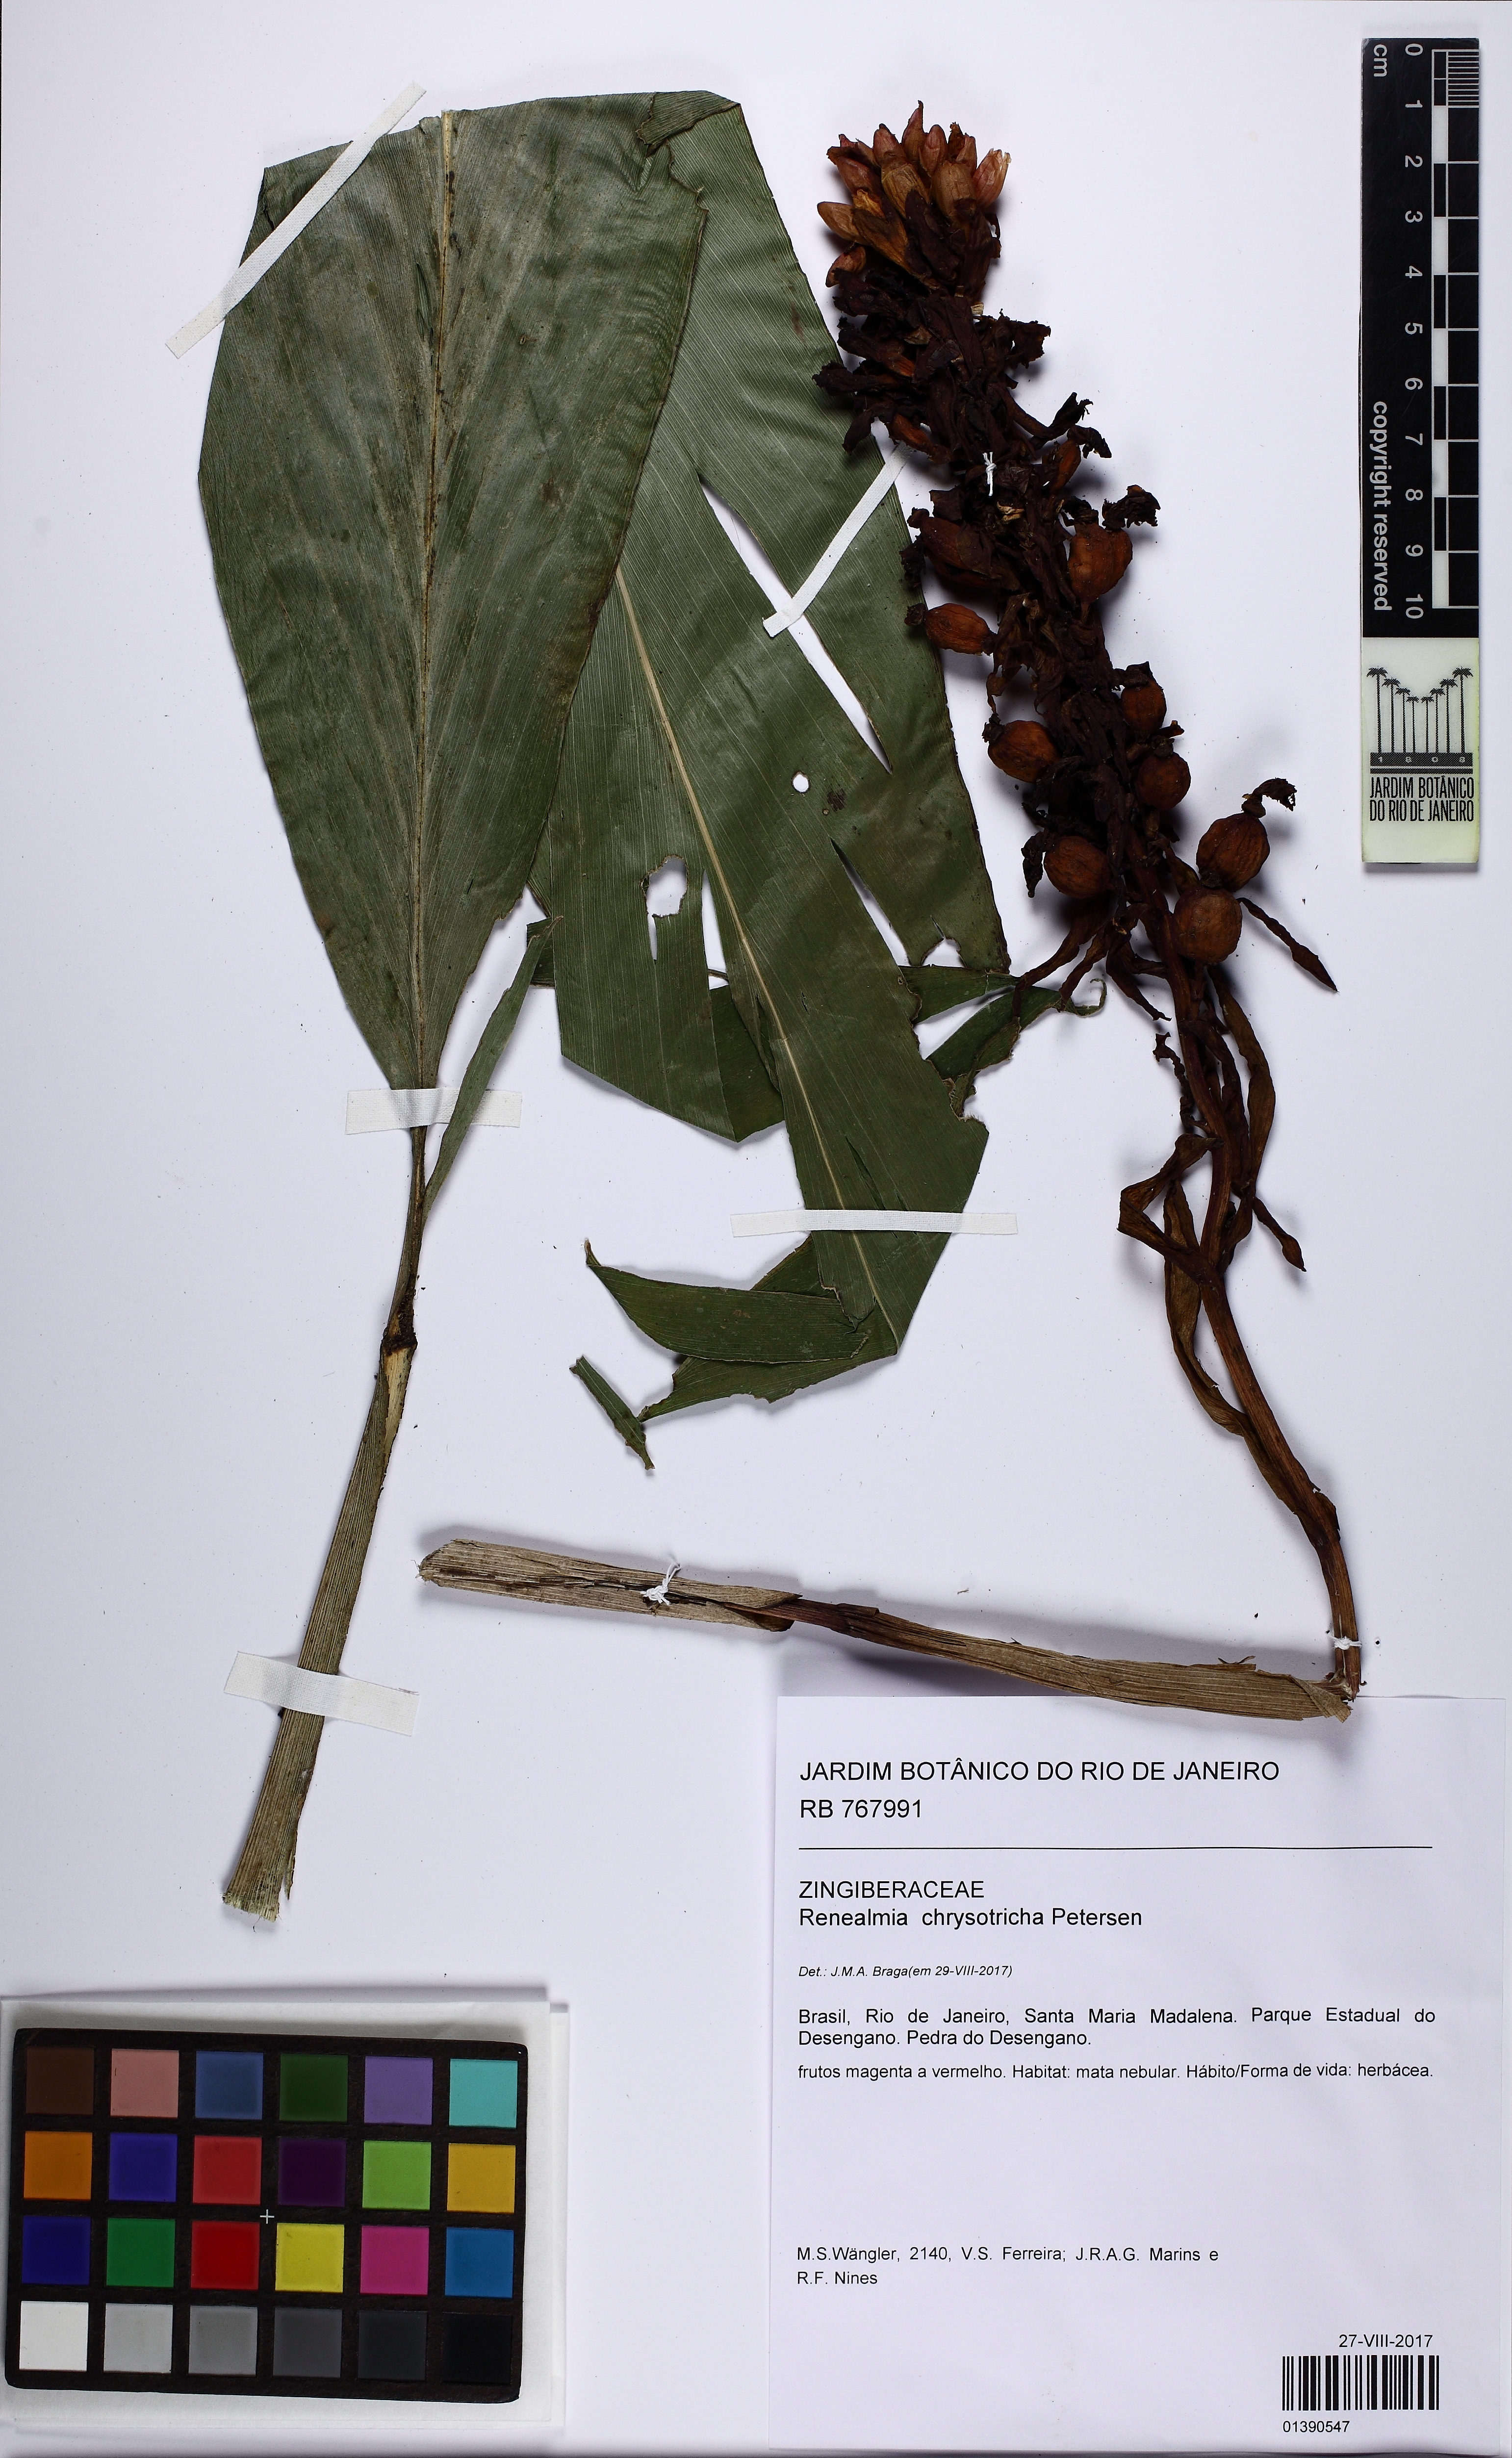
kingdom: Plantae
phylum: Tracheophyta
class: Liliopsida
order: Zingiberales
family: Zingiberaceae
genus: Renealmia
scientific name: Renealmia chrysotricha
